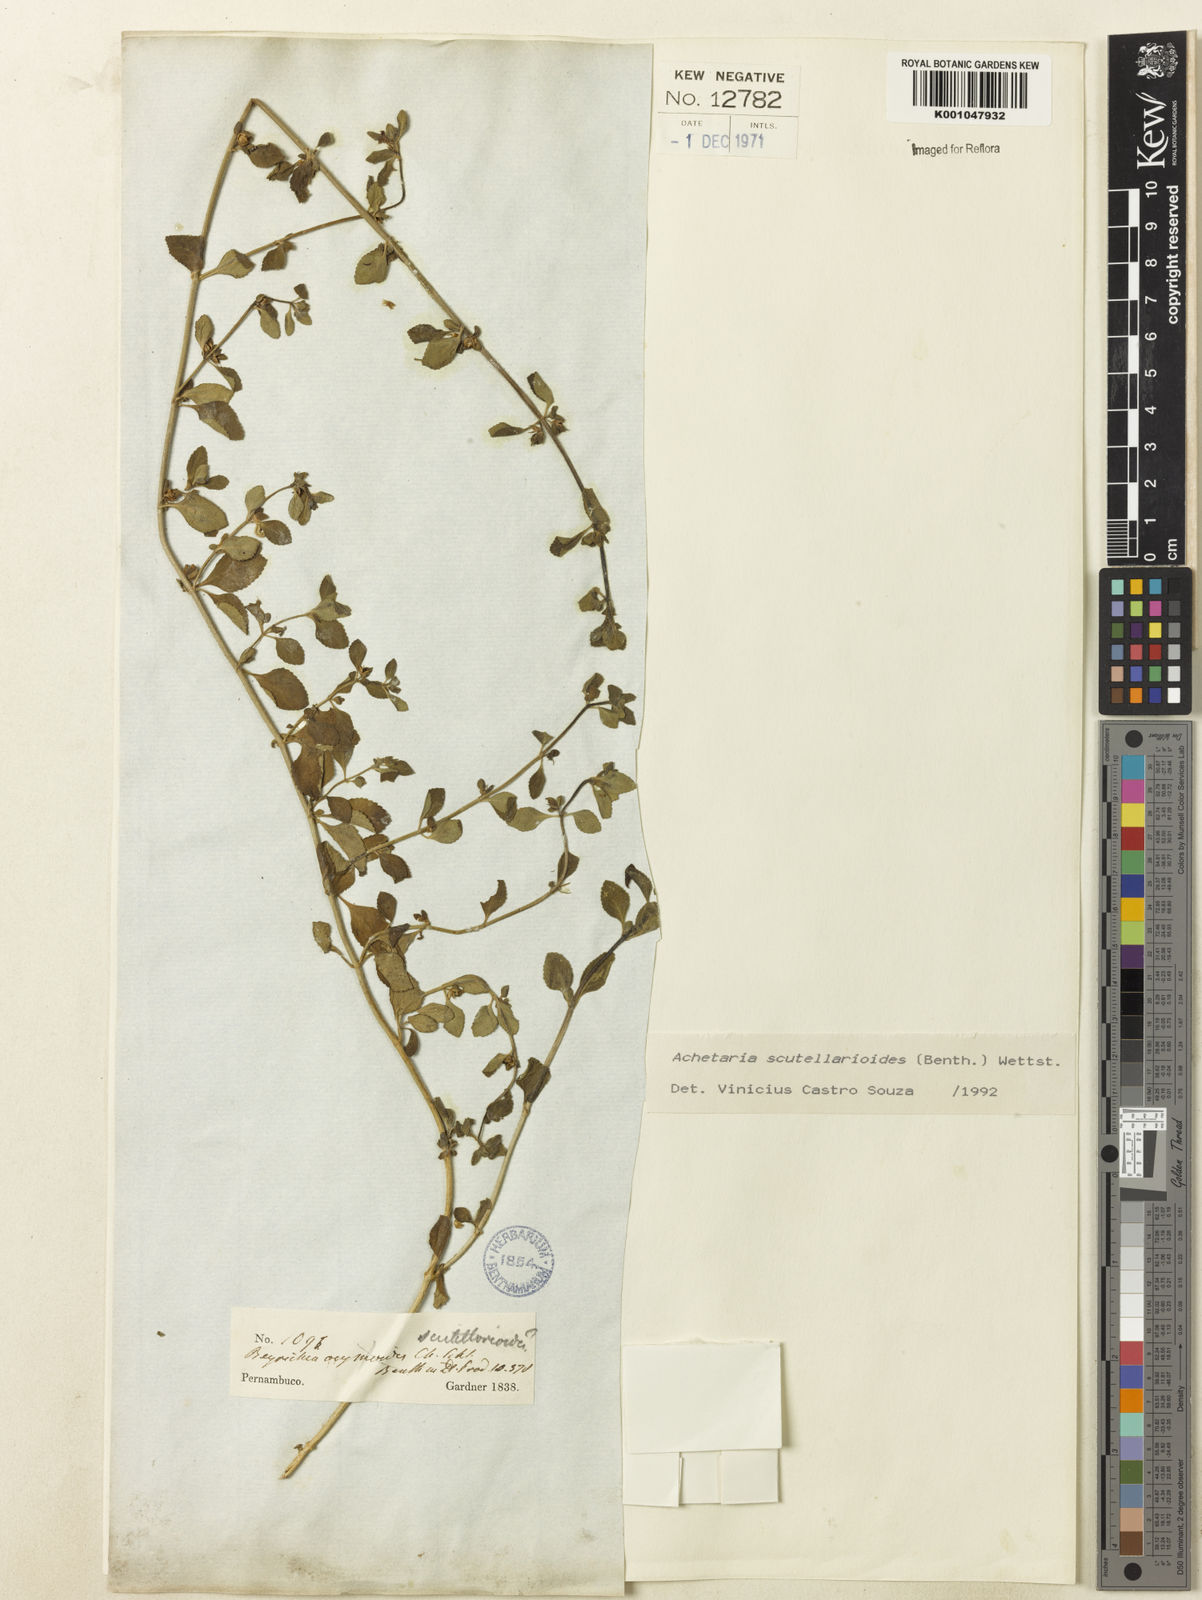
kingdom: Plantae
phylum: Tracheophyta
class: Magnoliopsida
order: Lamiales
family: Plantaginaceae
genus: Matourea
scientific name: Matourea scutellarioides
